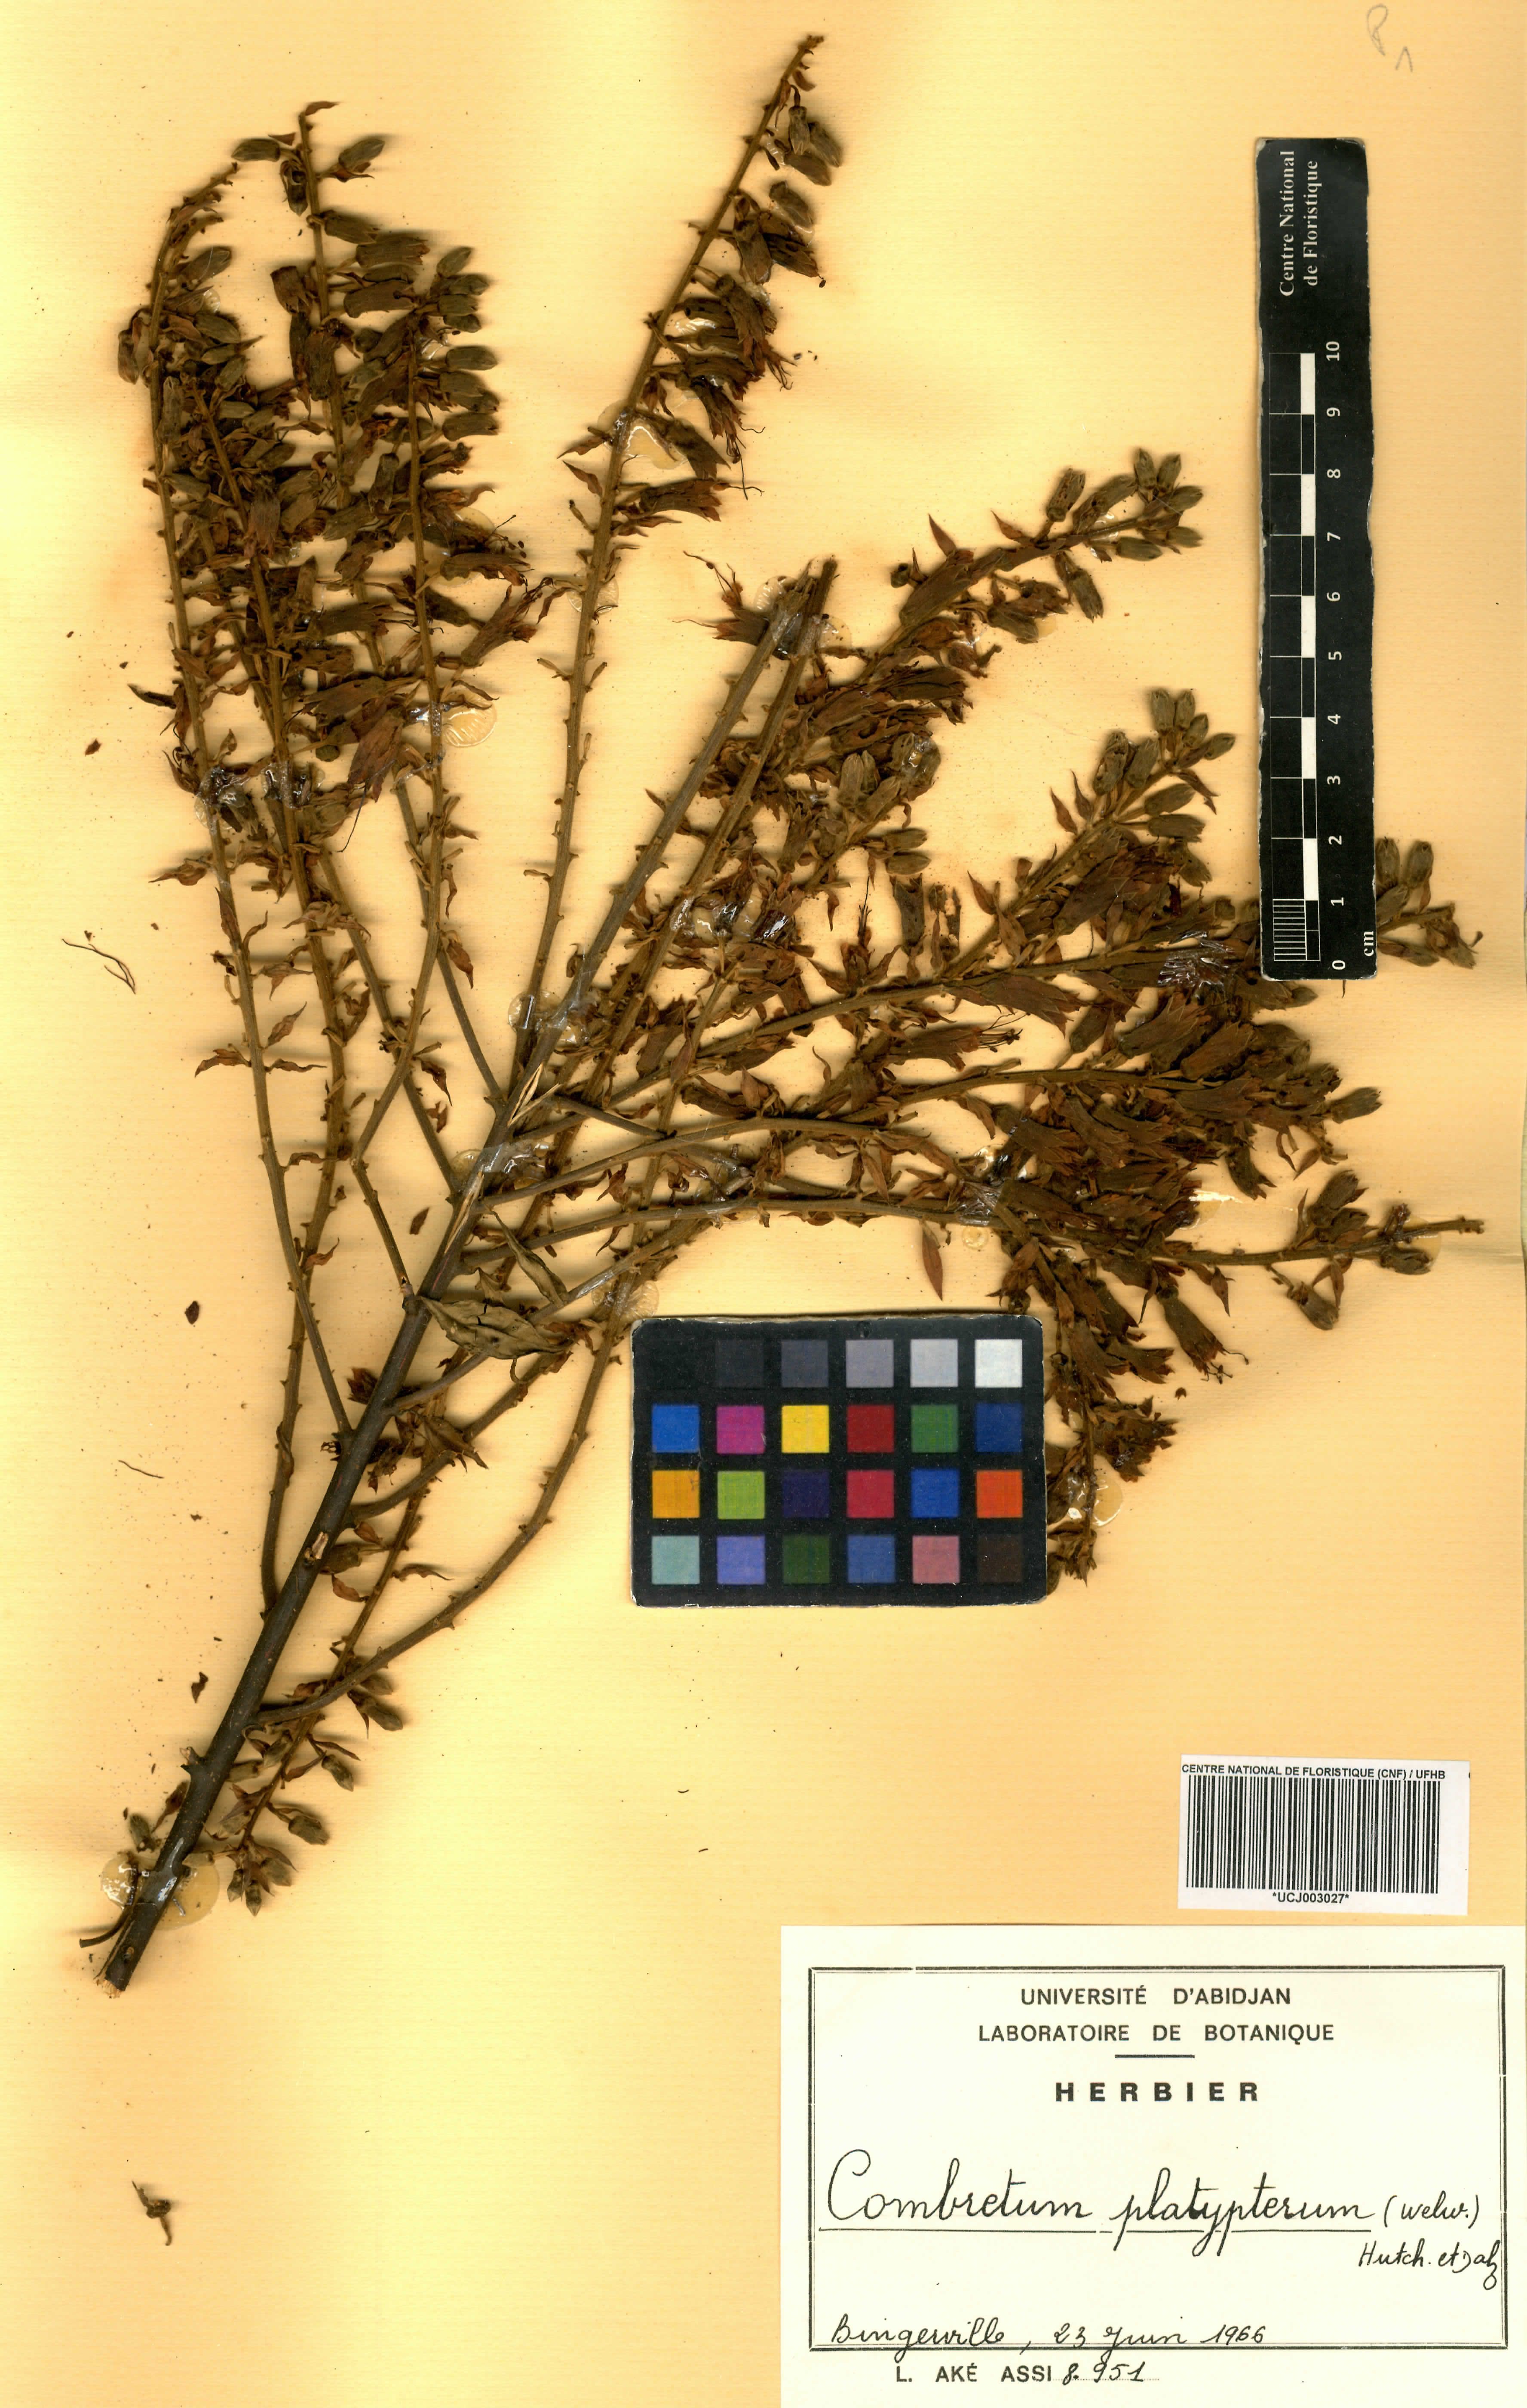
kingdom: Plantae
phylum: Tracheophyta
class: Magnoliopsida
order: Myrtales
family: Combretaceae
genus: Combretum
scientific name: Combretum platypterum
